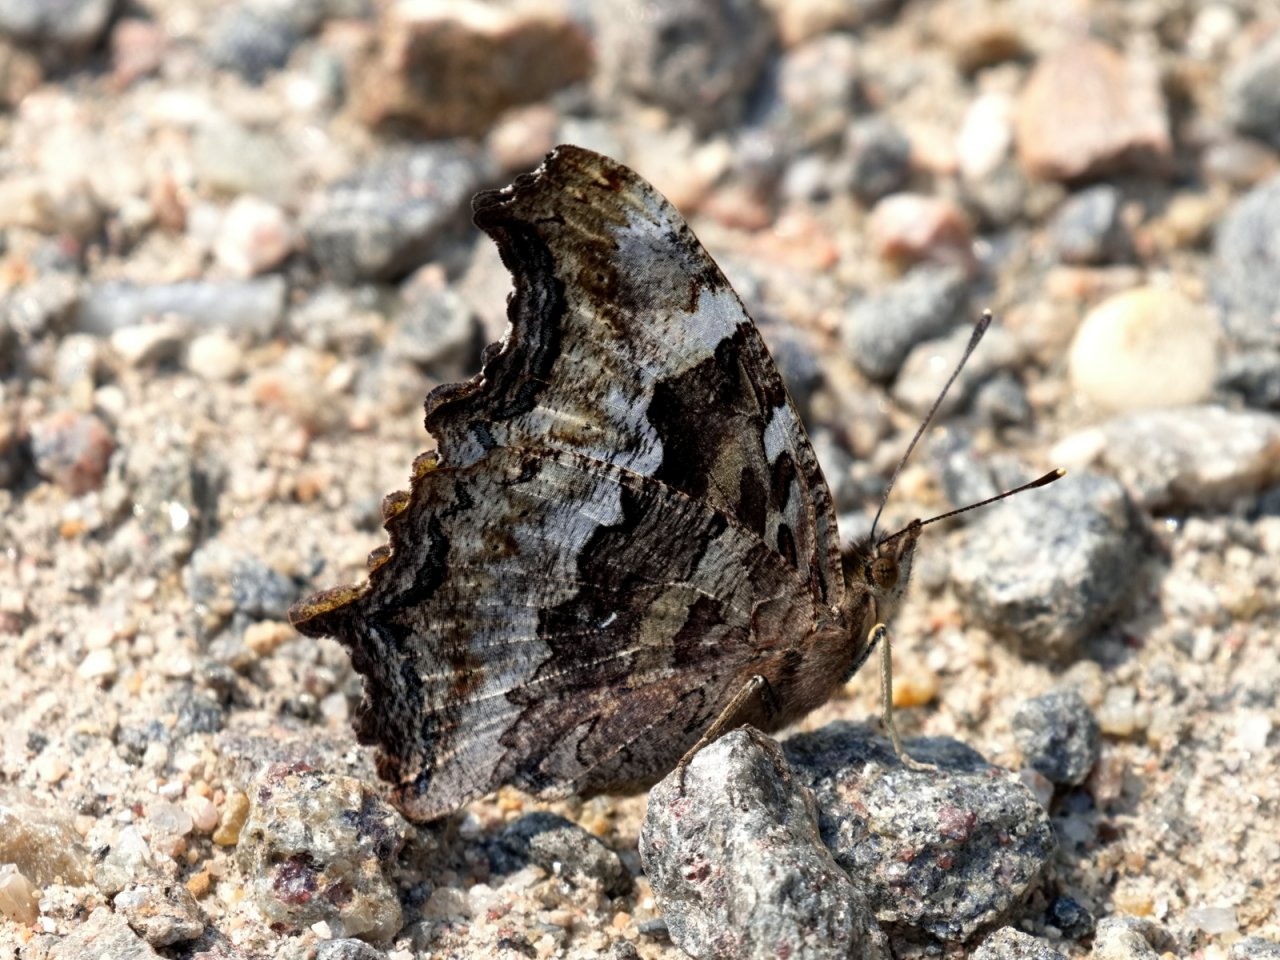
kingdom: Animalia
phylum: Arthropoda
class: Insecta
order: Lepidoptera
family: Nymphalidae
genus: Polygonia
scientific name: Polygonia vaualbum
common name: Compton Tortoiseshell
